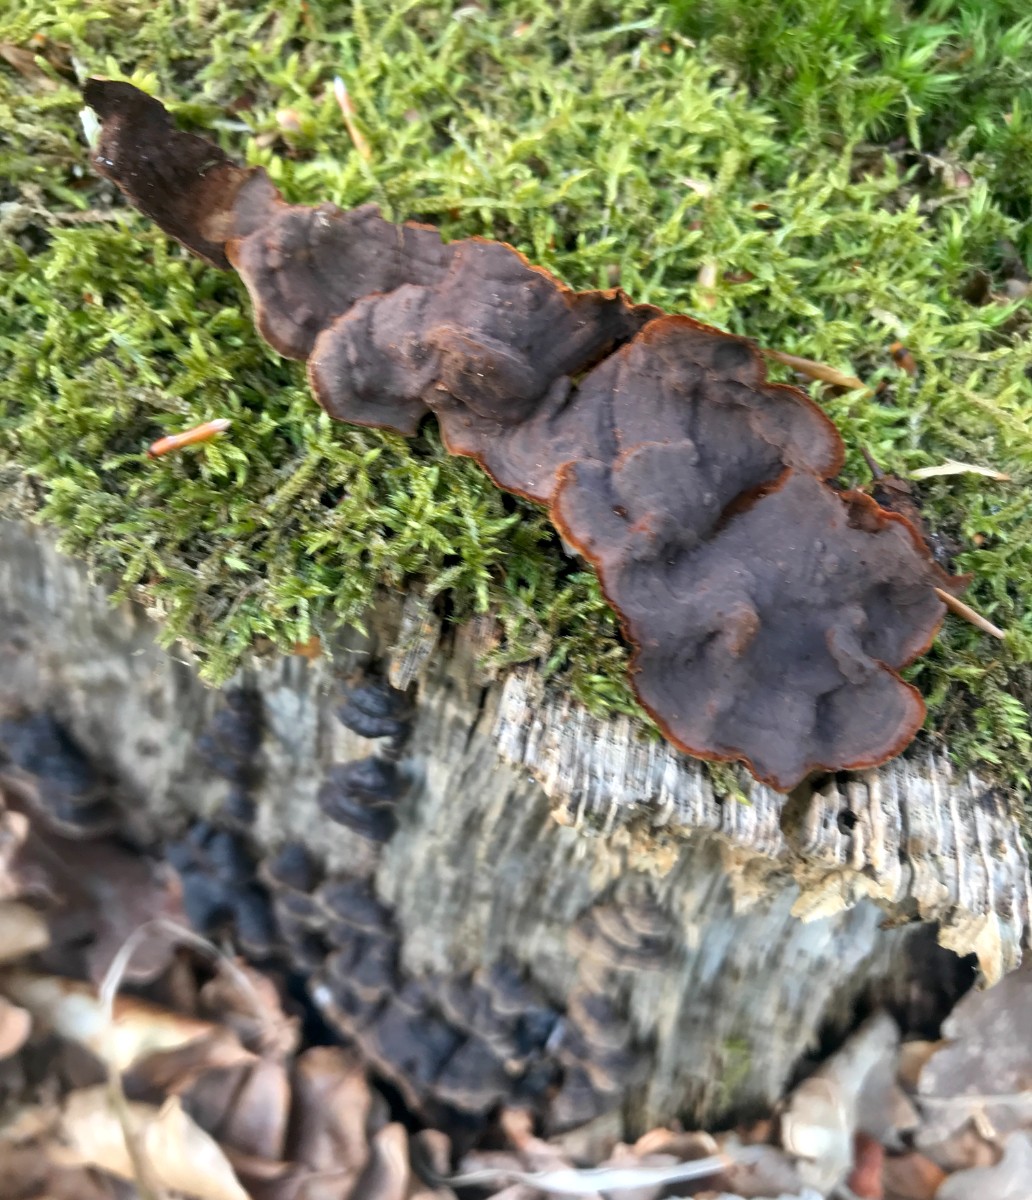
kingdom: Fungi
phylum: Basidiomycota
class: Agaricomycetes
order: Hymenochaetales
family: Hymenochaetaceae
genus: Hymenochaete
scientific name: Hymenochaete rubiginosa
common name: stiv ruslædersvamp
